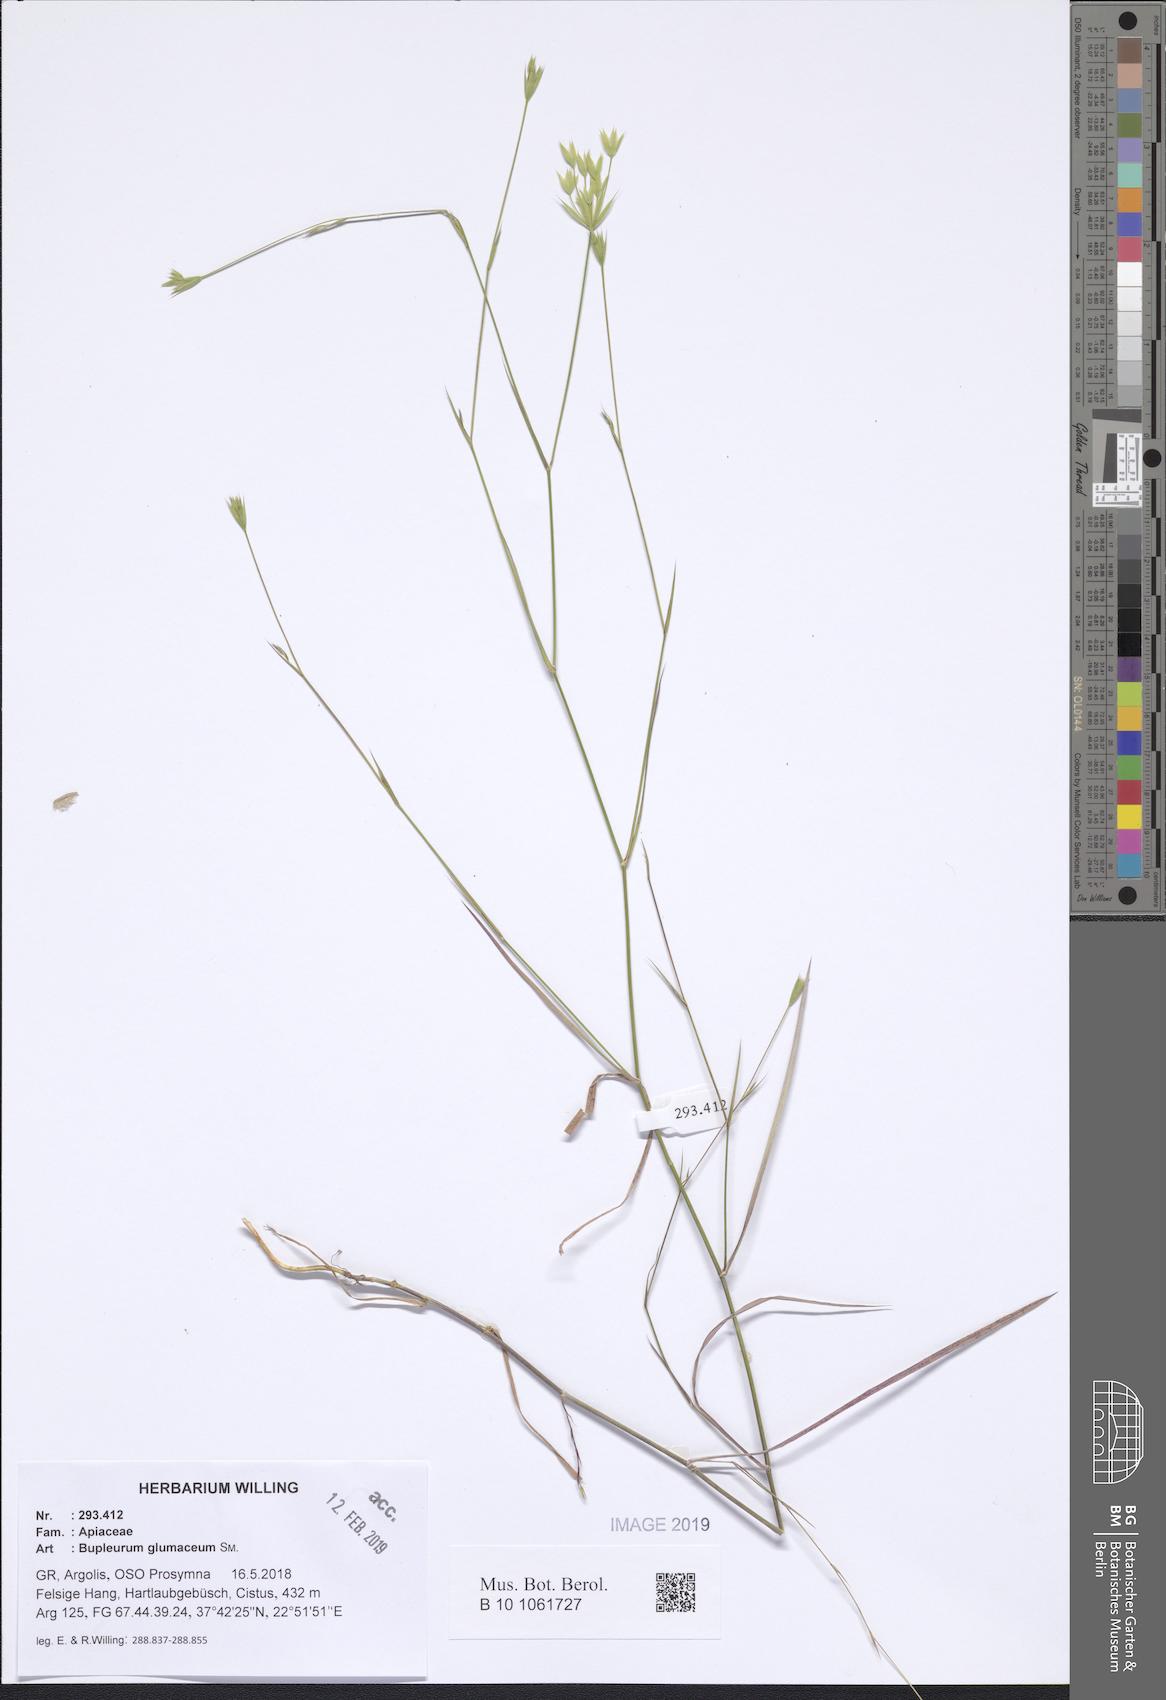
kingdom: Plantae
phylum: Tracheophyta
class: Magnoliopsida
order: Apiales
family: Apiaceae
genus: Bupleurum
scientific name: Bupleurum glumaceum
